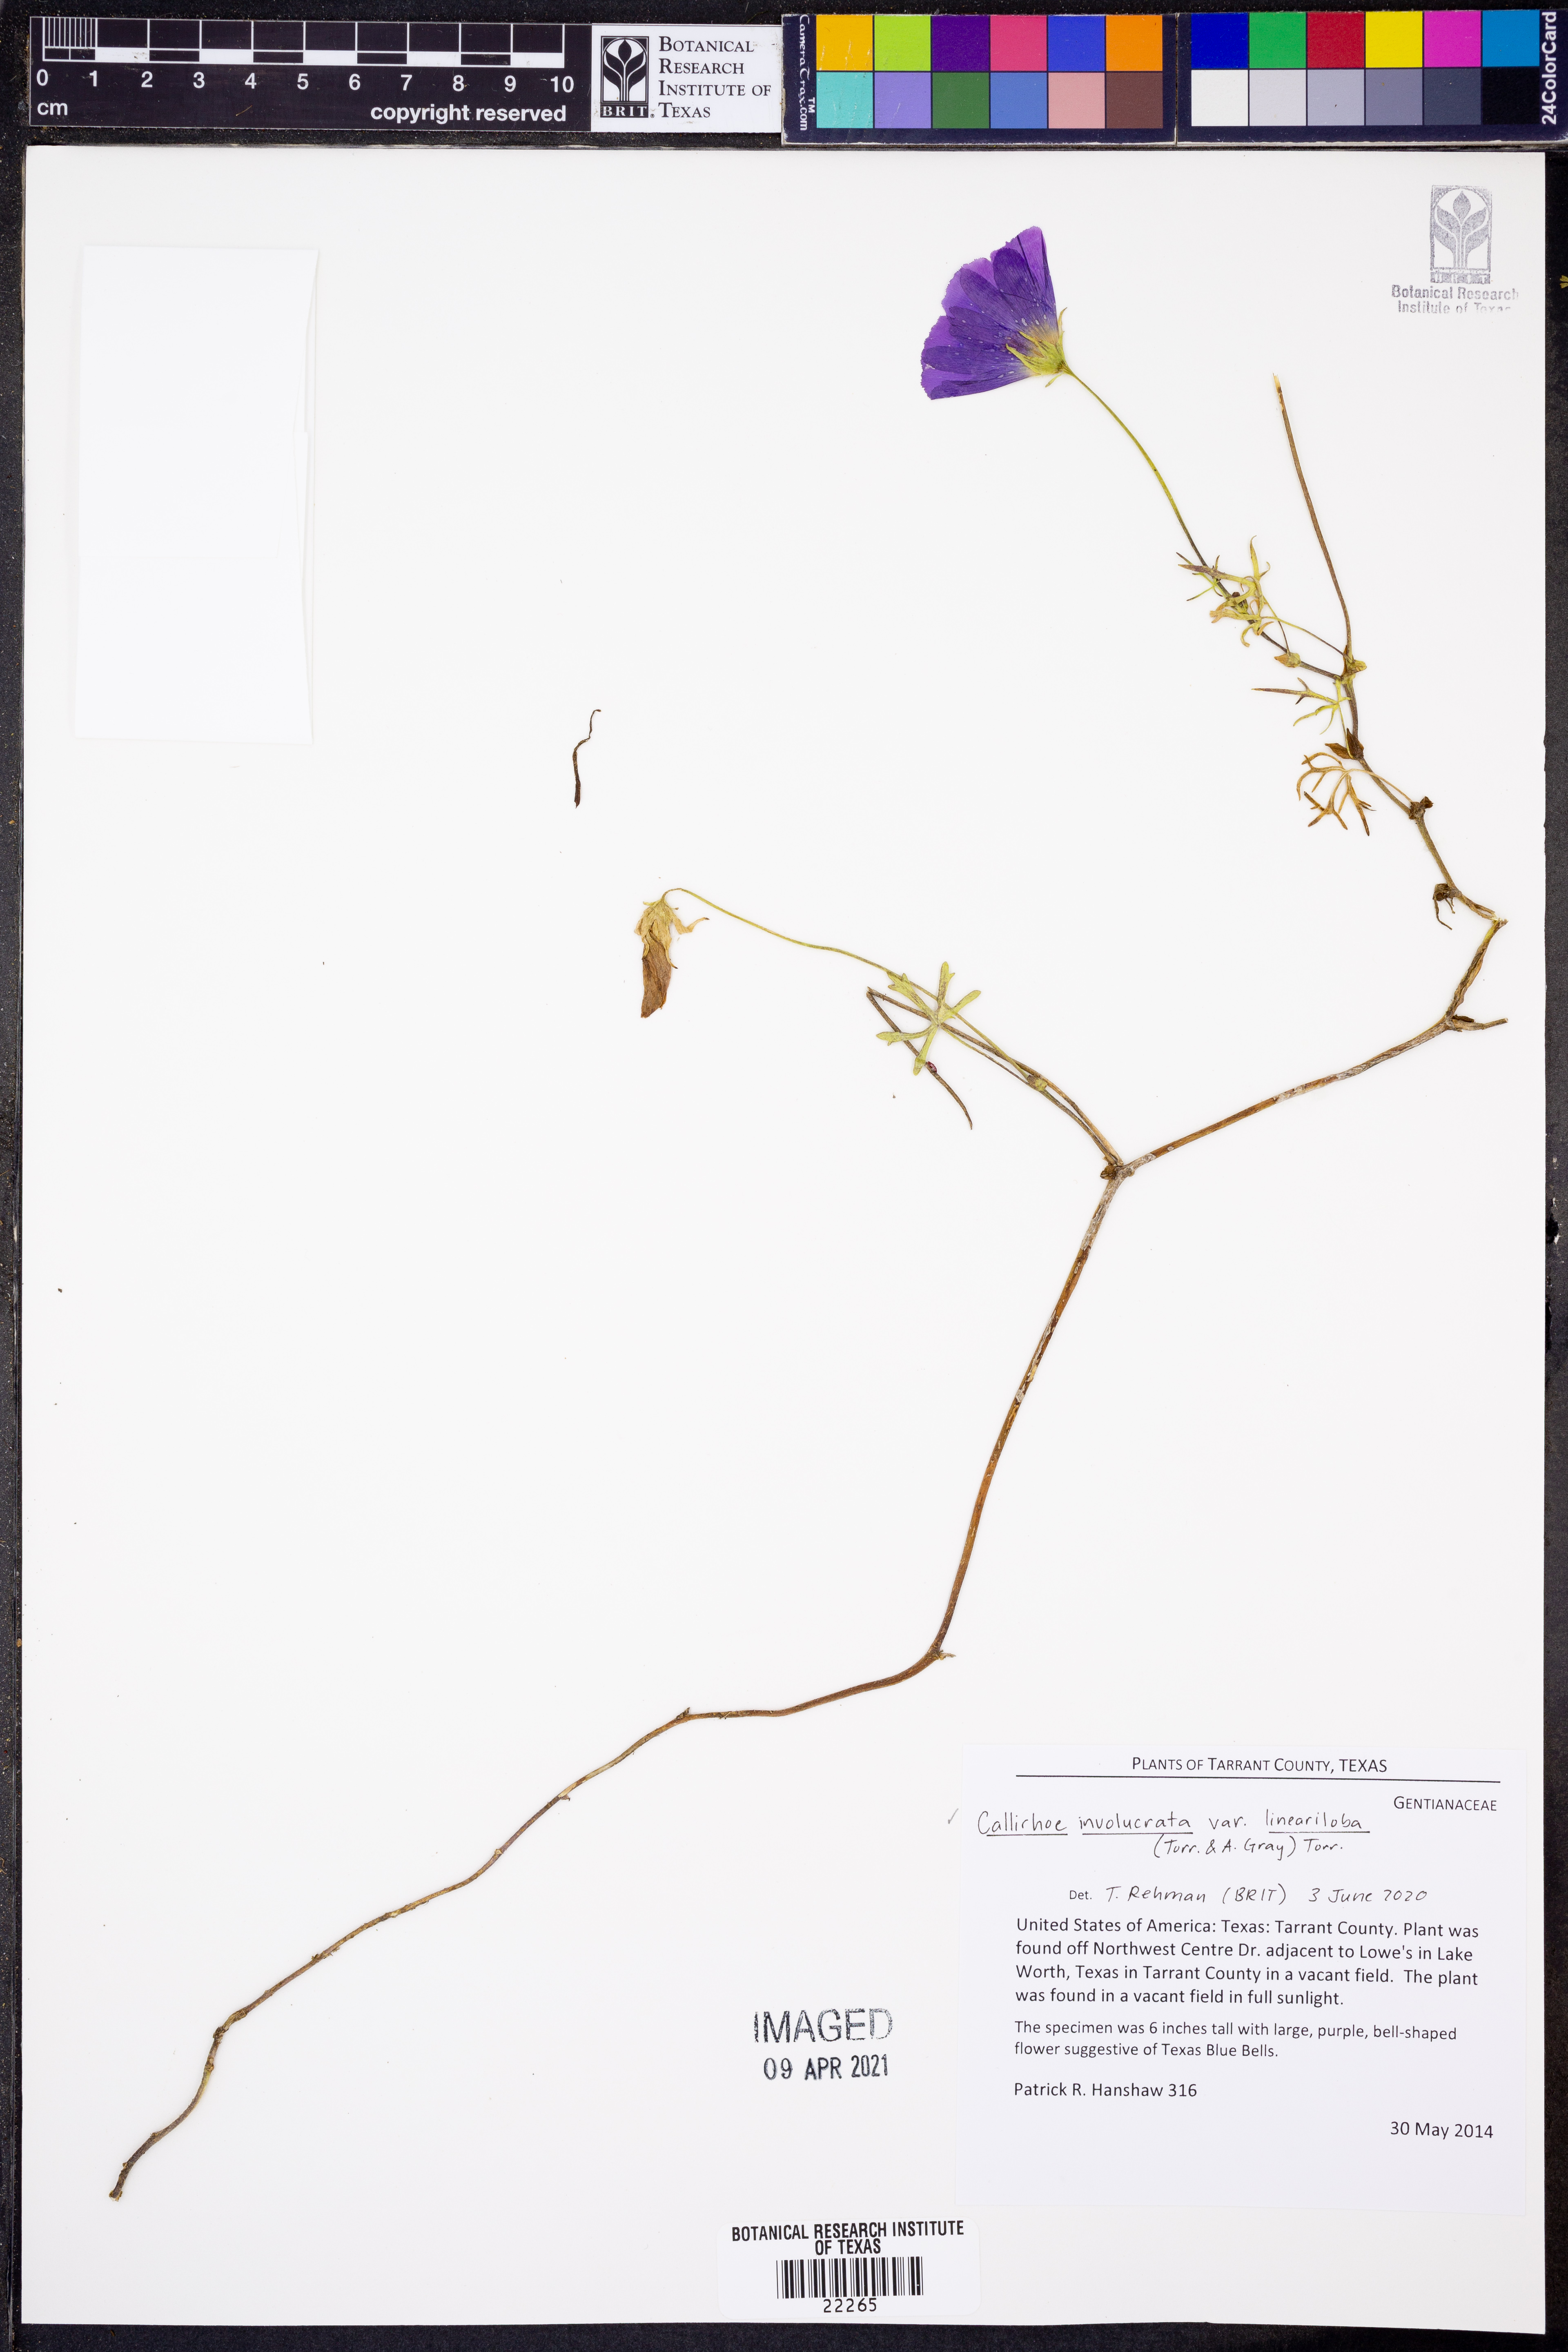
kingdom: Plantae
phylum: Tracheophyta
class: Magnoliopsida
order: Malvales
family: Malvaceae
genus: Callirhoe
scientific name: Callirhoe involucrata
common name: Purple poppy-mallow
